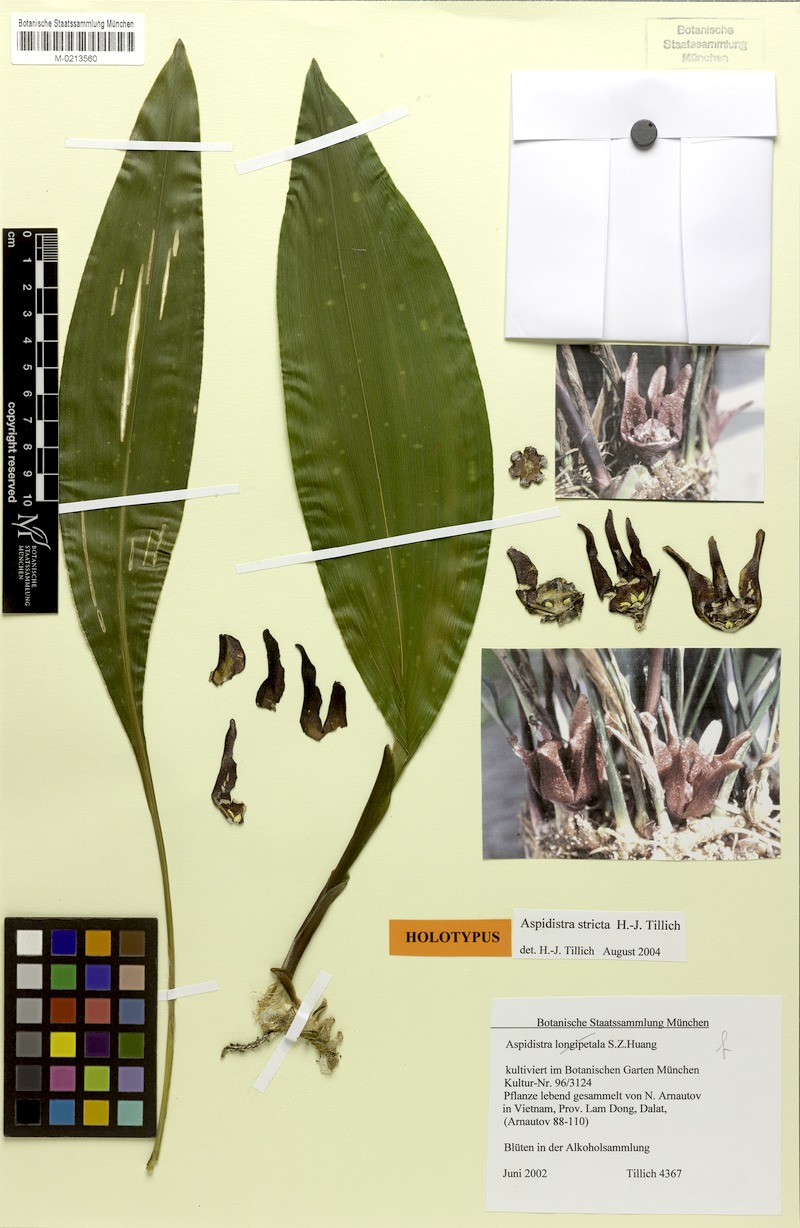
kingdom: Plantae
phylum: Tracheophyta
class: Liliopsida
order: Asparagales
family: Asparagaceae
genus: Aspidistra
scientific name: Aspidistra stricta
